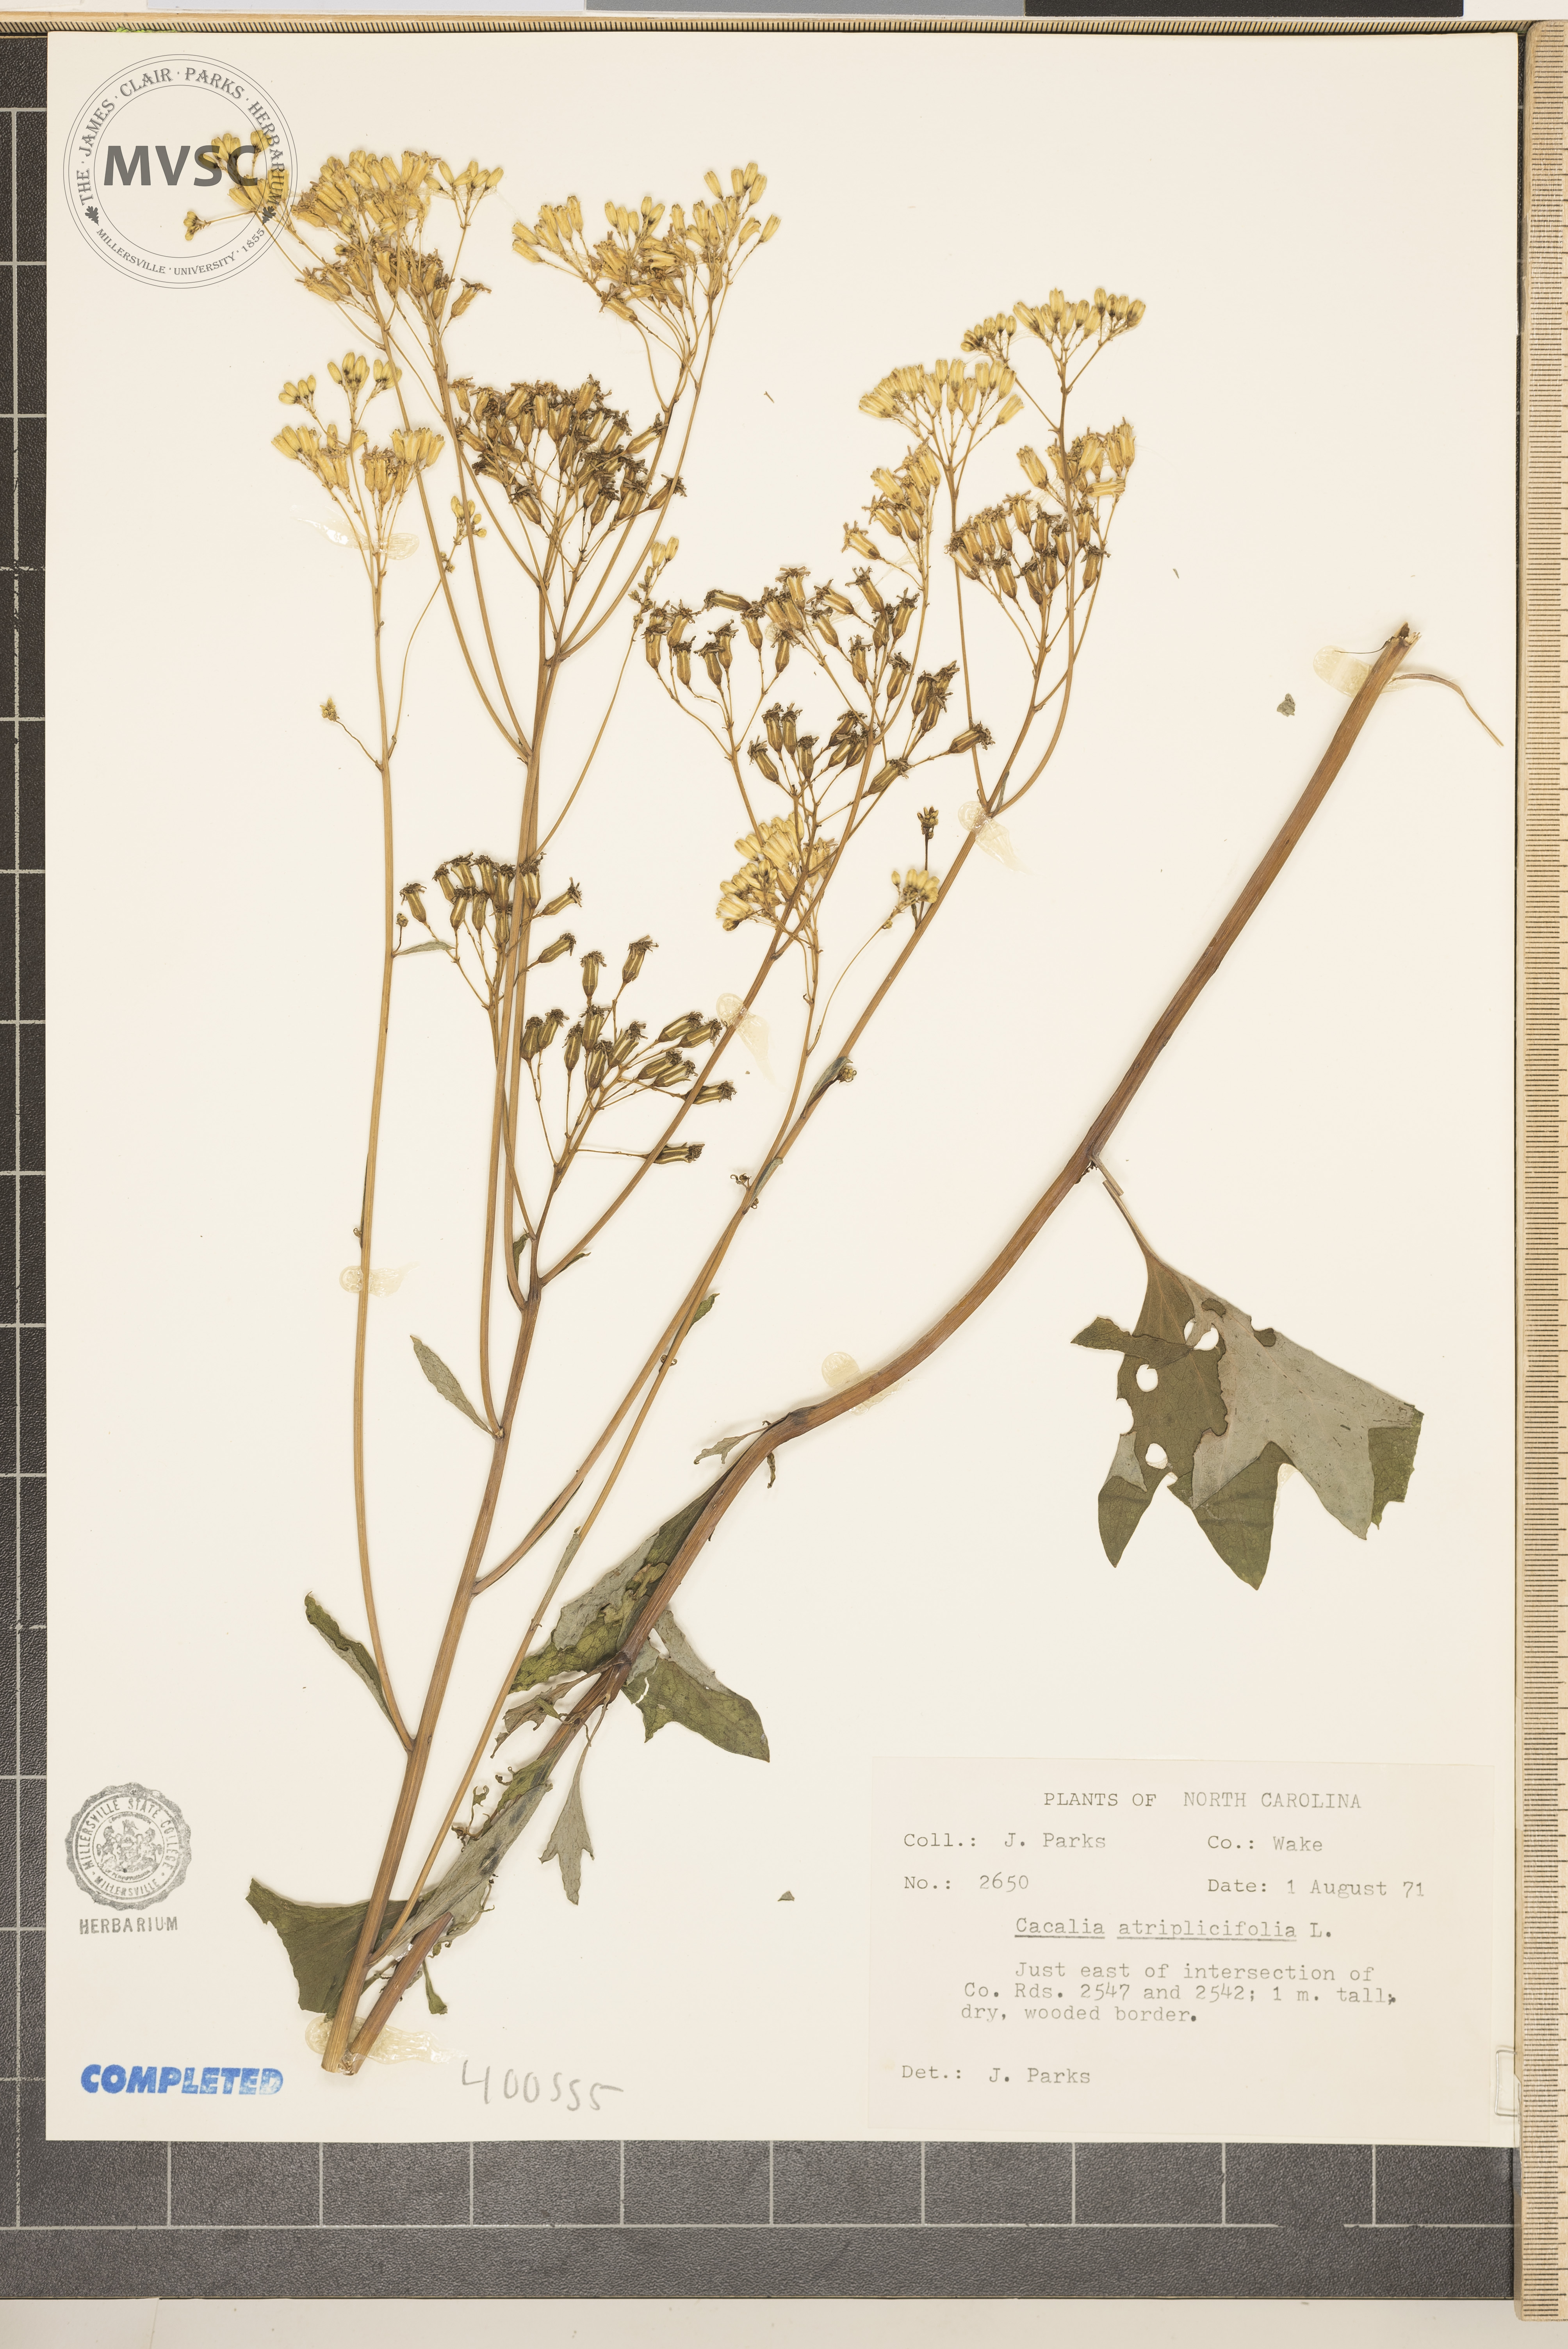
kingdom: Plantae
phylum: Tracheophyta
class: Magnoliopsida
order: Asterales
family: Asteraceae
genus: Arnoglossum
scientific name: Arnoglossum atriplicifolium
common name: Pale indian-plantain
